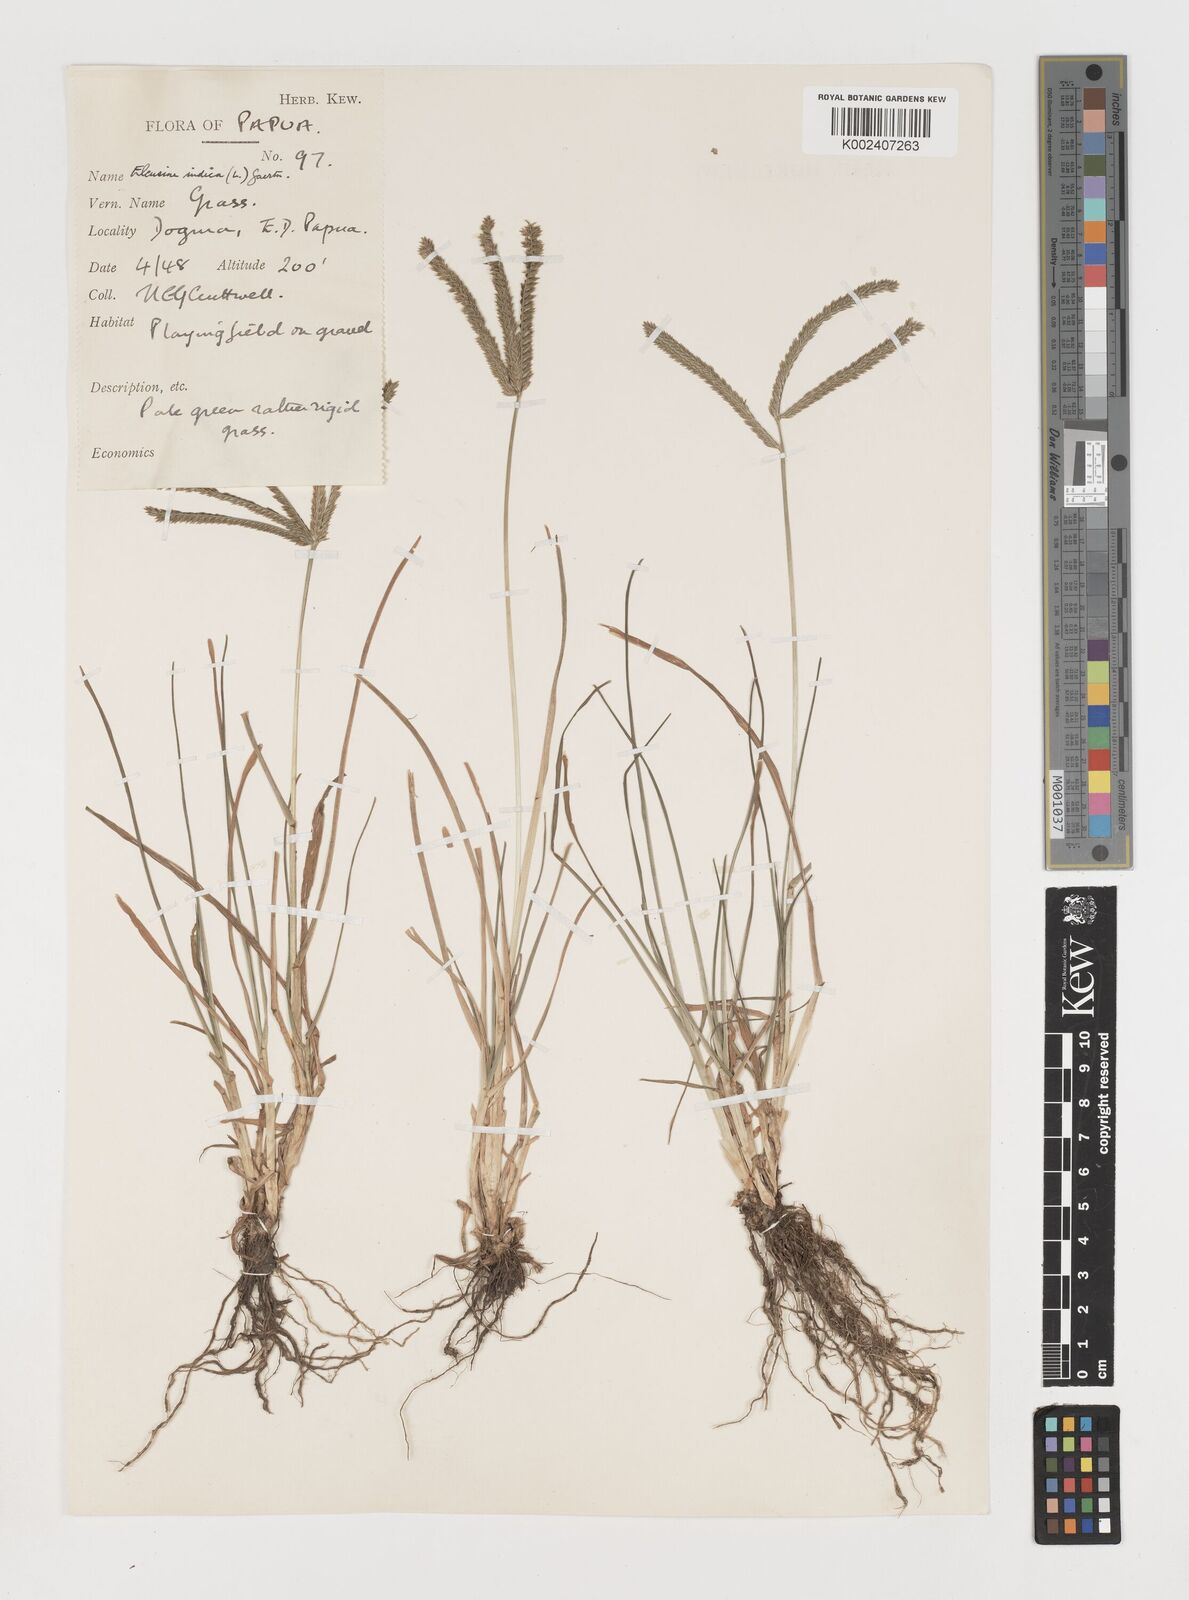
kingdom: Plantae
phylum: Tracheophyta
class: Liliopsida
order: Poales
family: Poaceae
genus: Eleusine
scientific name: Eleusine indica
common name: Yard-grass
